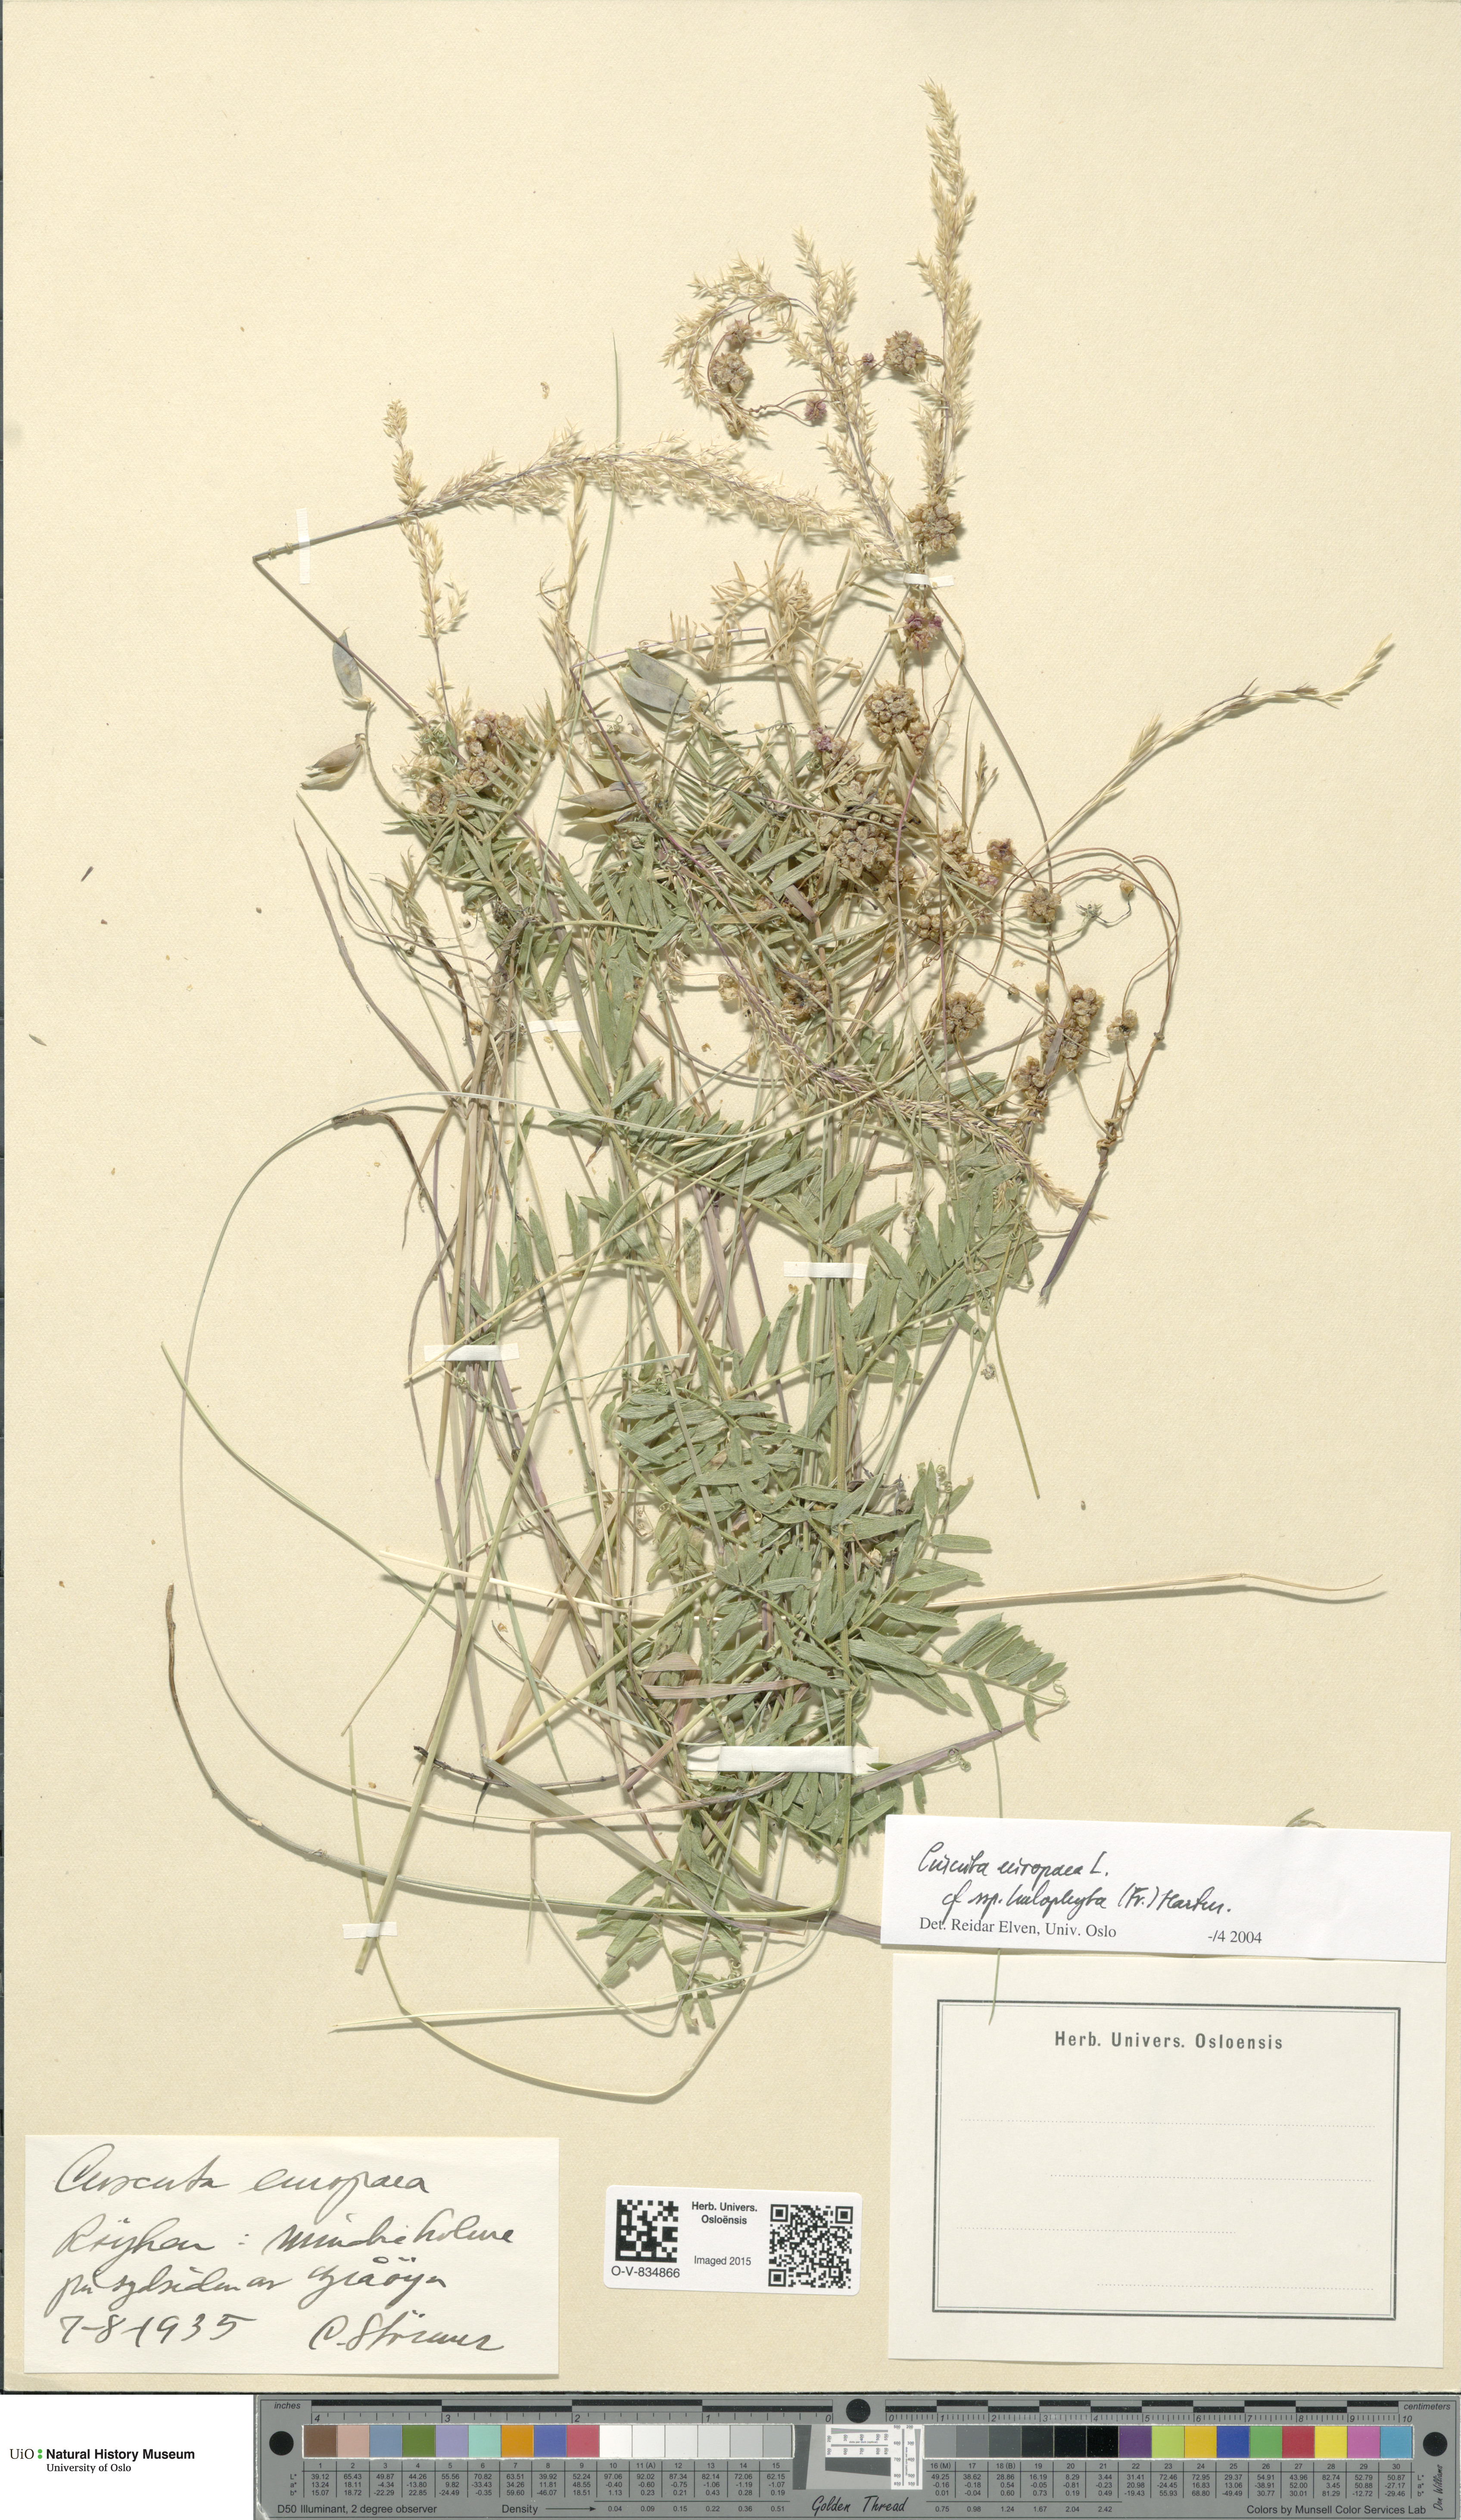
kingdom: Plantae
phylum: Tracheophyta
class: Magnoliopsida
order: Solanales
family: Convolvulaceae
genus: Cuscuta
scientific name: Cuscuta europaea
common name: Greater dodder
